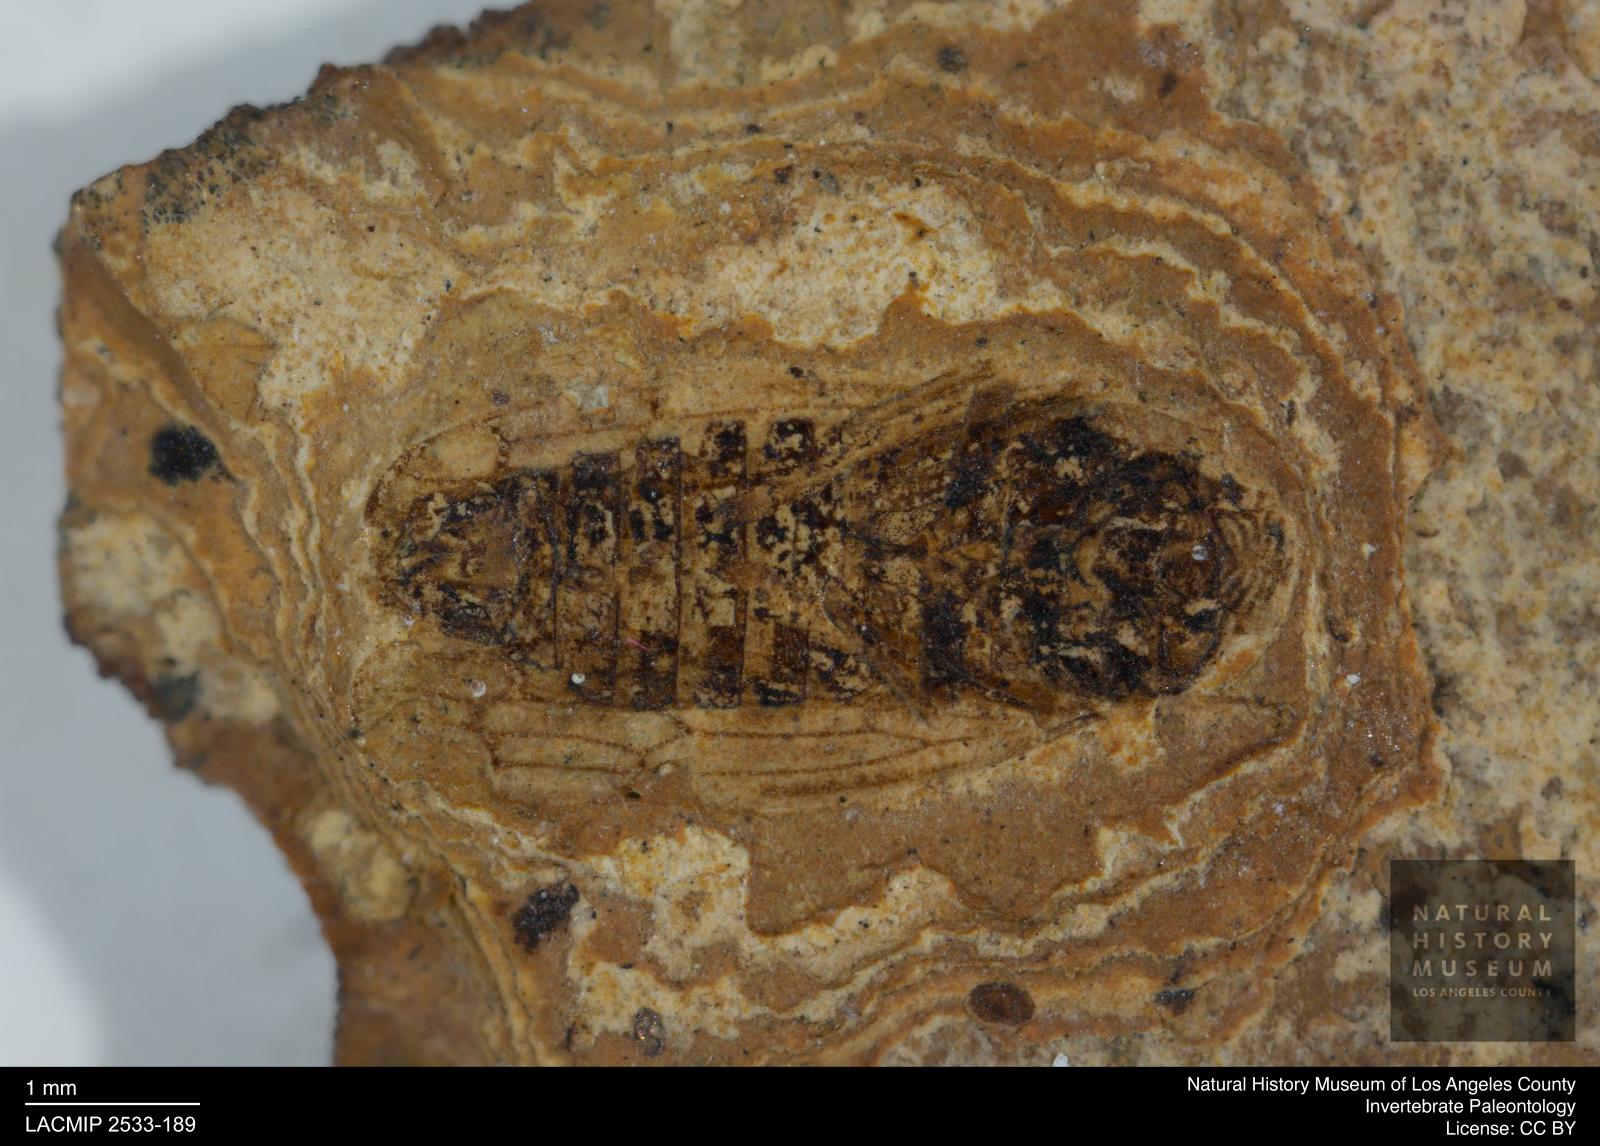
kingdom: Animalia
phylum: Arthropoda
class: Insecta
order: Hemiptera
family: Cicadellidae
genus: Thamnotettix
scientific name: Thamnotettix angustipennis
